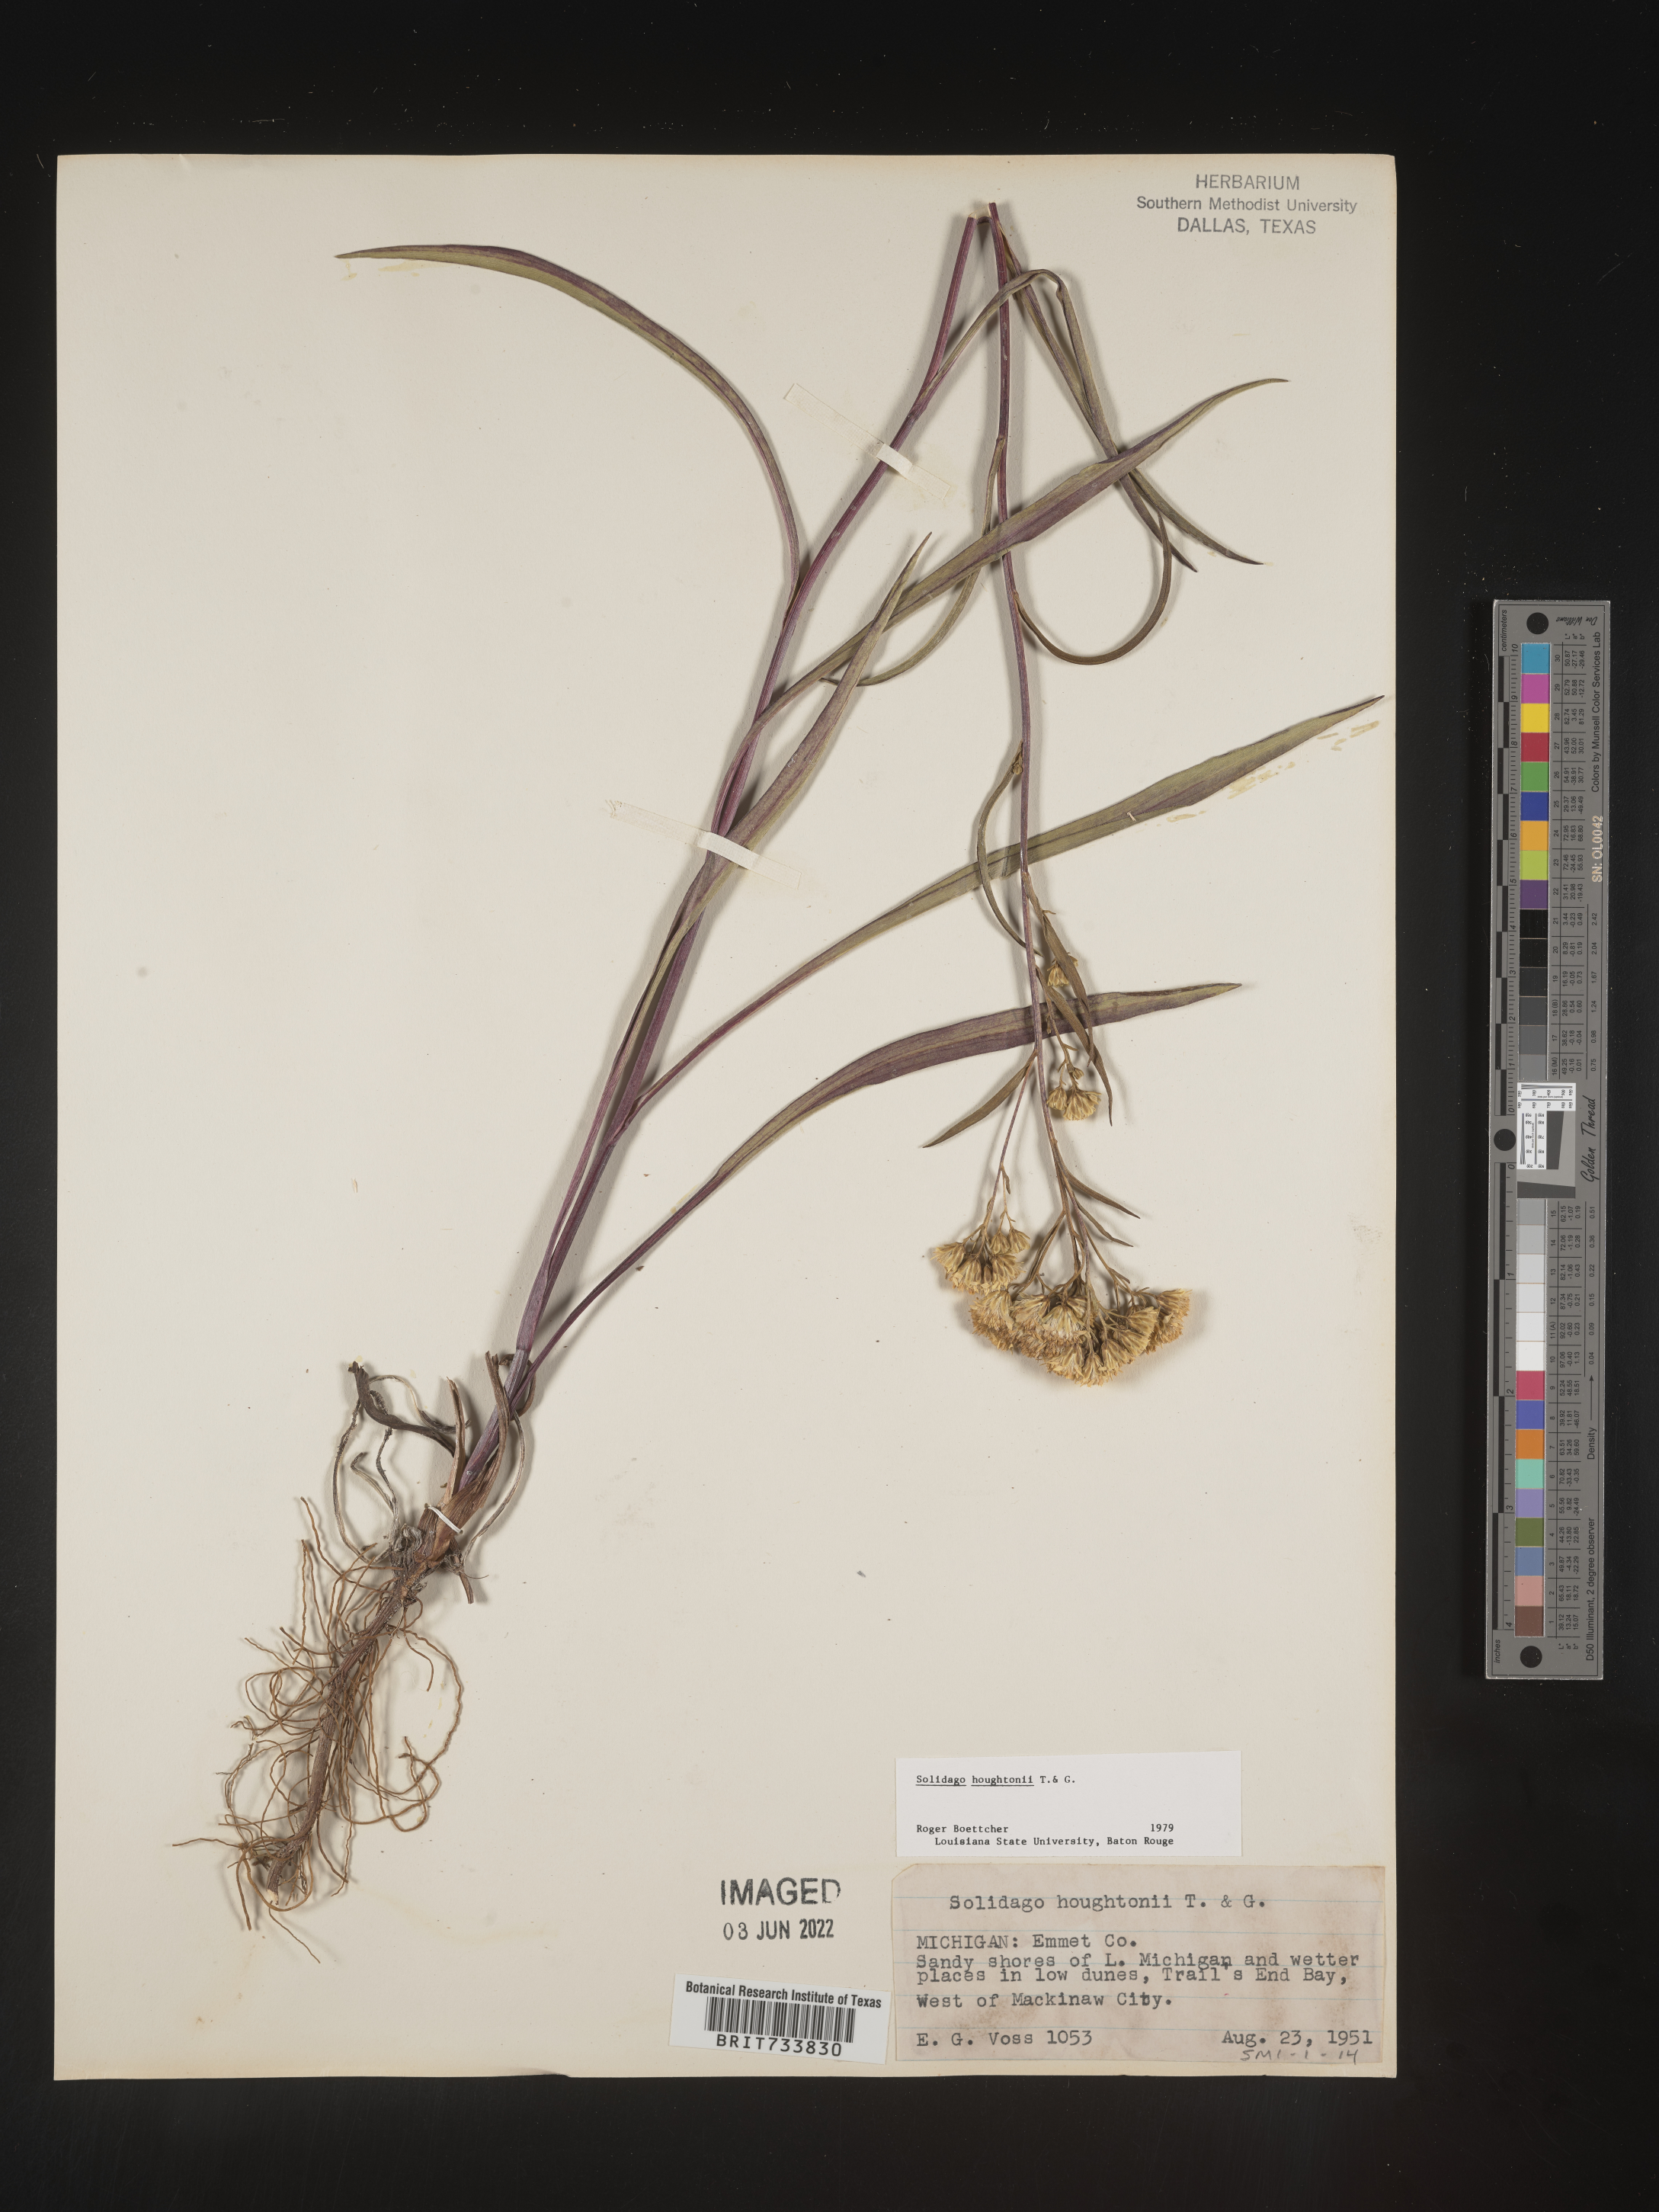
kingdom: Plantae
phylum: Tracheophyta
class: Magnoliopsida
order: Asterales
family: Asteraceae
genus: Solidago
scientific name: Solidago ptarmicoides
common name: White flat-top goldenrod
